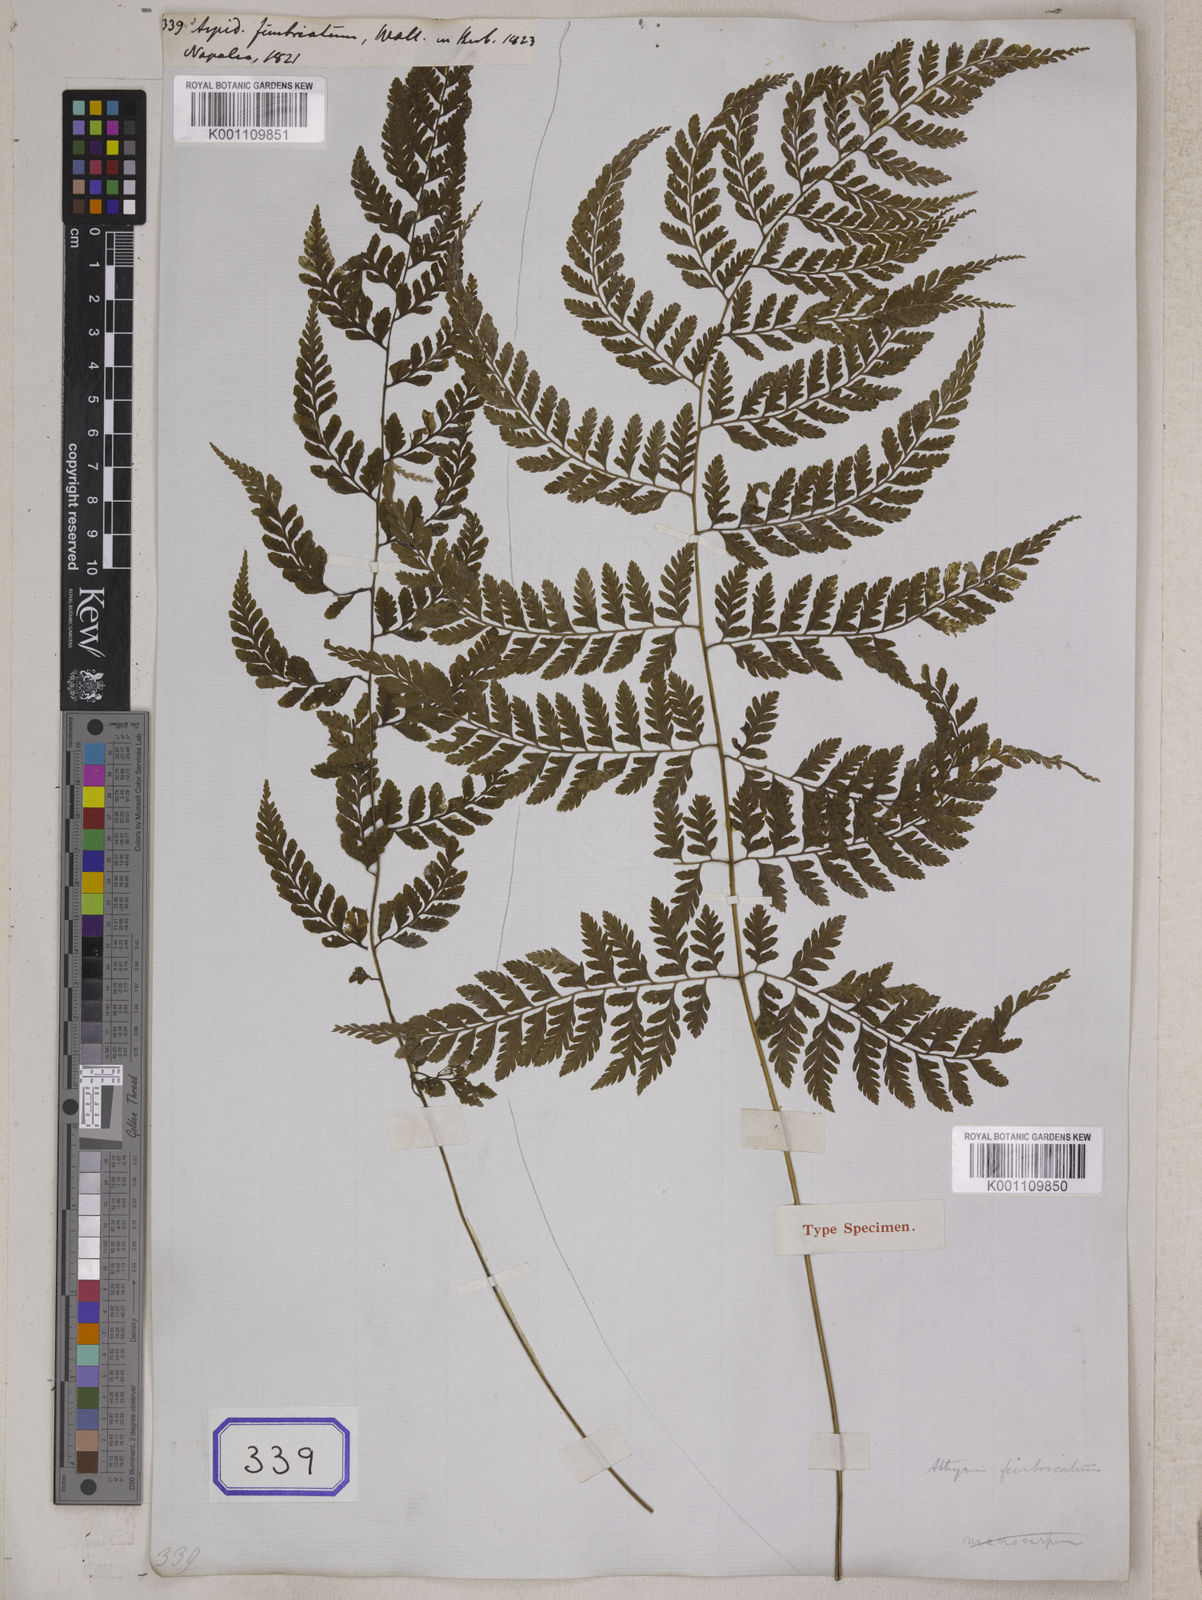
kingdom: Plantae
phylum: Tracheophyta
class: Polypodiopsida
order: Polypodiales
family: Athyriaceae
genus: Athyrium
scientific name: Athyrium fimbriatum
